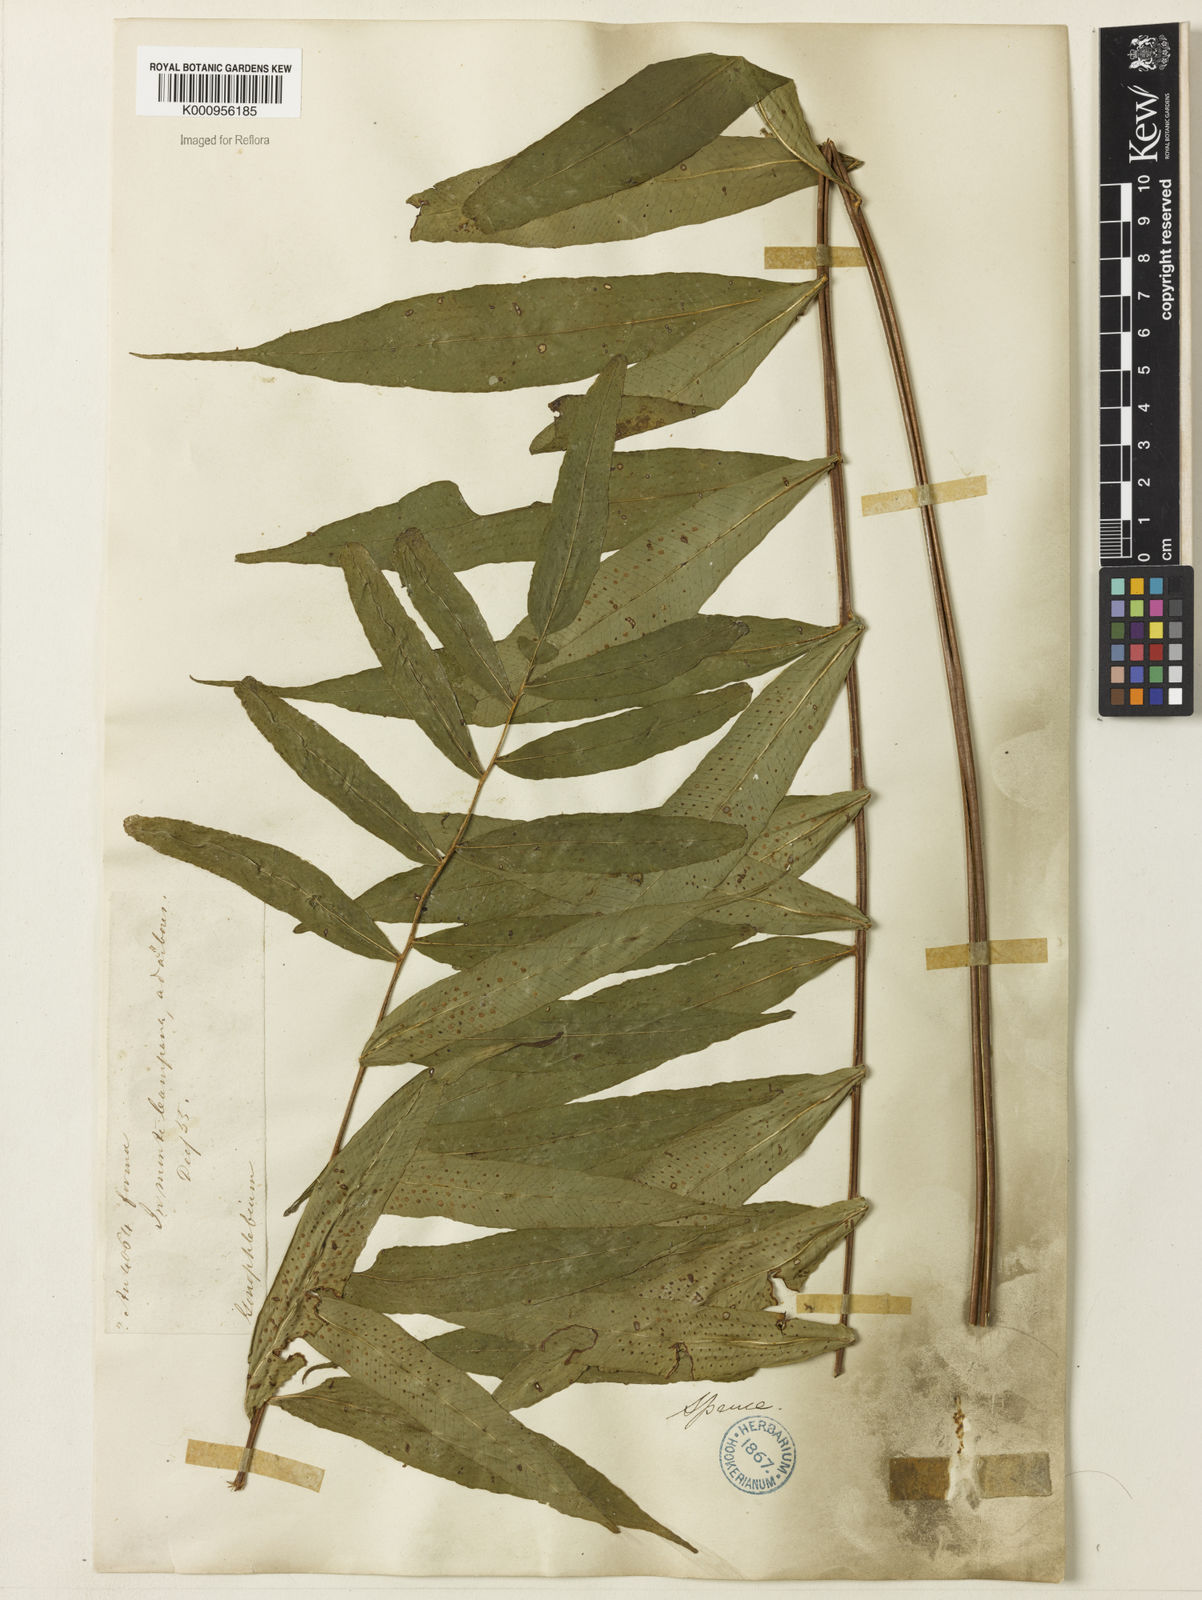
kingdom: Plantae
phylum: Tracheophyta
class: Polypodiopsida
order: Polypodiales
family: Polypodiaceae
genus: Serpocaulon
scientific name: Serpocaulon fraxinifolium
